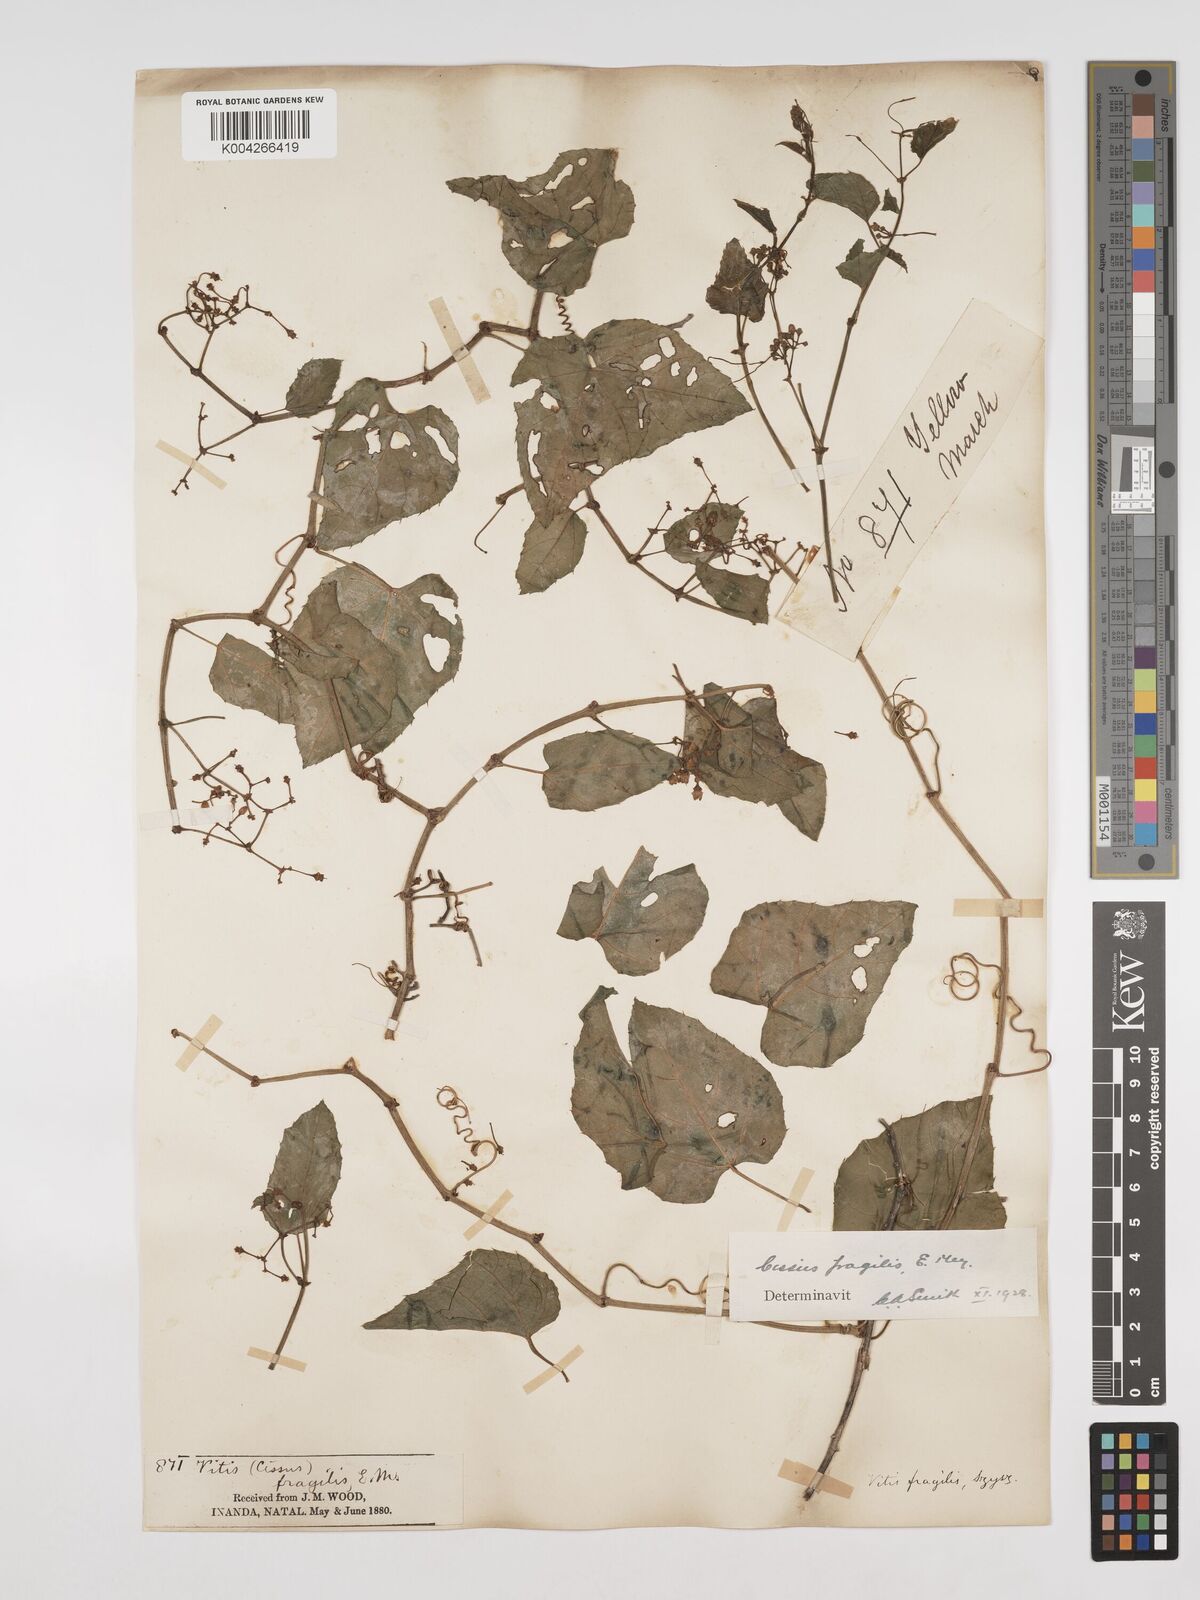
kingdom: Plantae
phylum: Tracheophyta
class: Magnoliopsida
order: Vitales
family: Vitaceae
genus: Cissus
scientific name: Cissus fragilis
